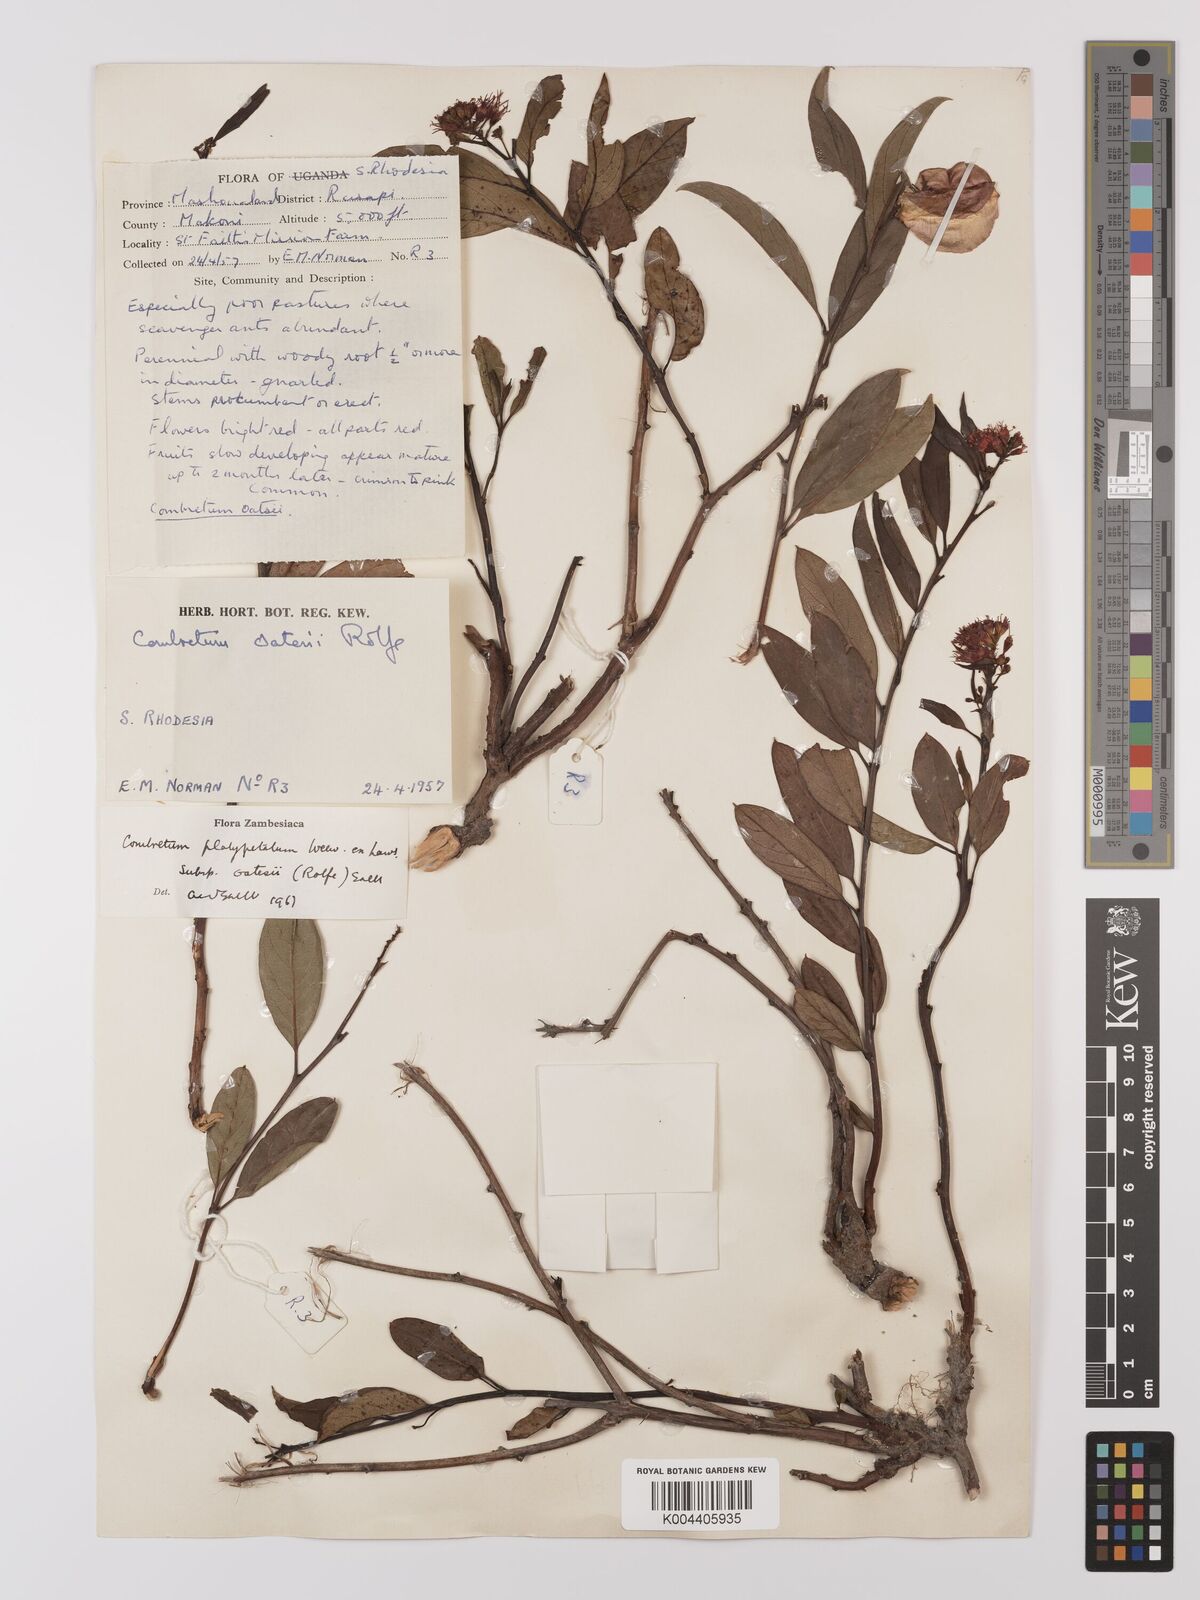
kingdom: Plantae
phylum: Tracheophyta
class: Magnoliopsida
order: Myrtales
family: Combretaceae
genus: Combretum
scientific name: Combretum platypetalum
